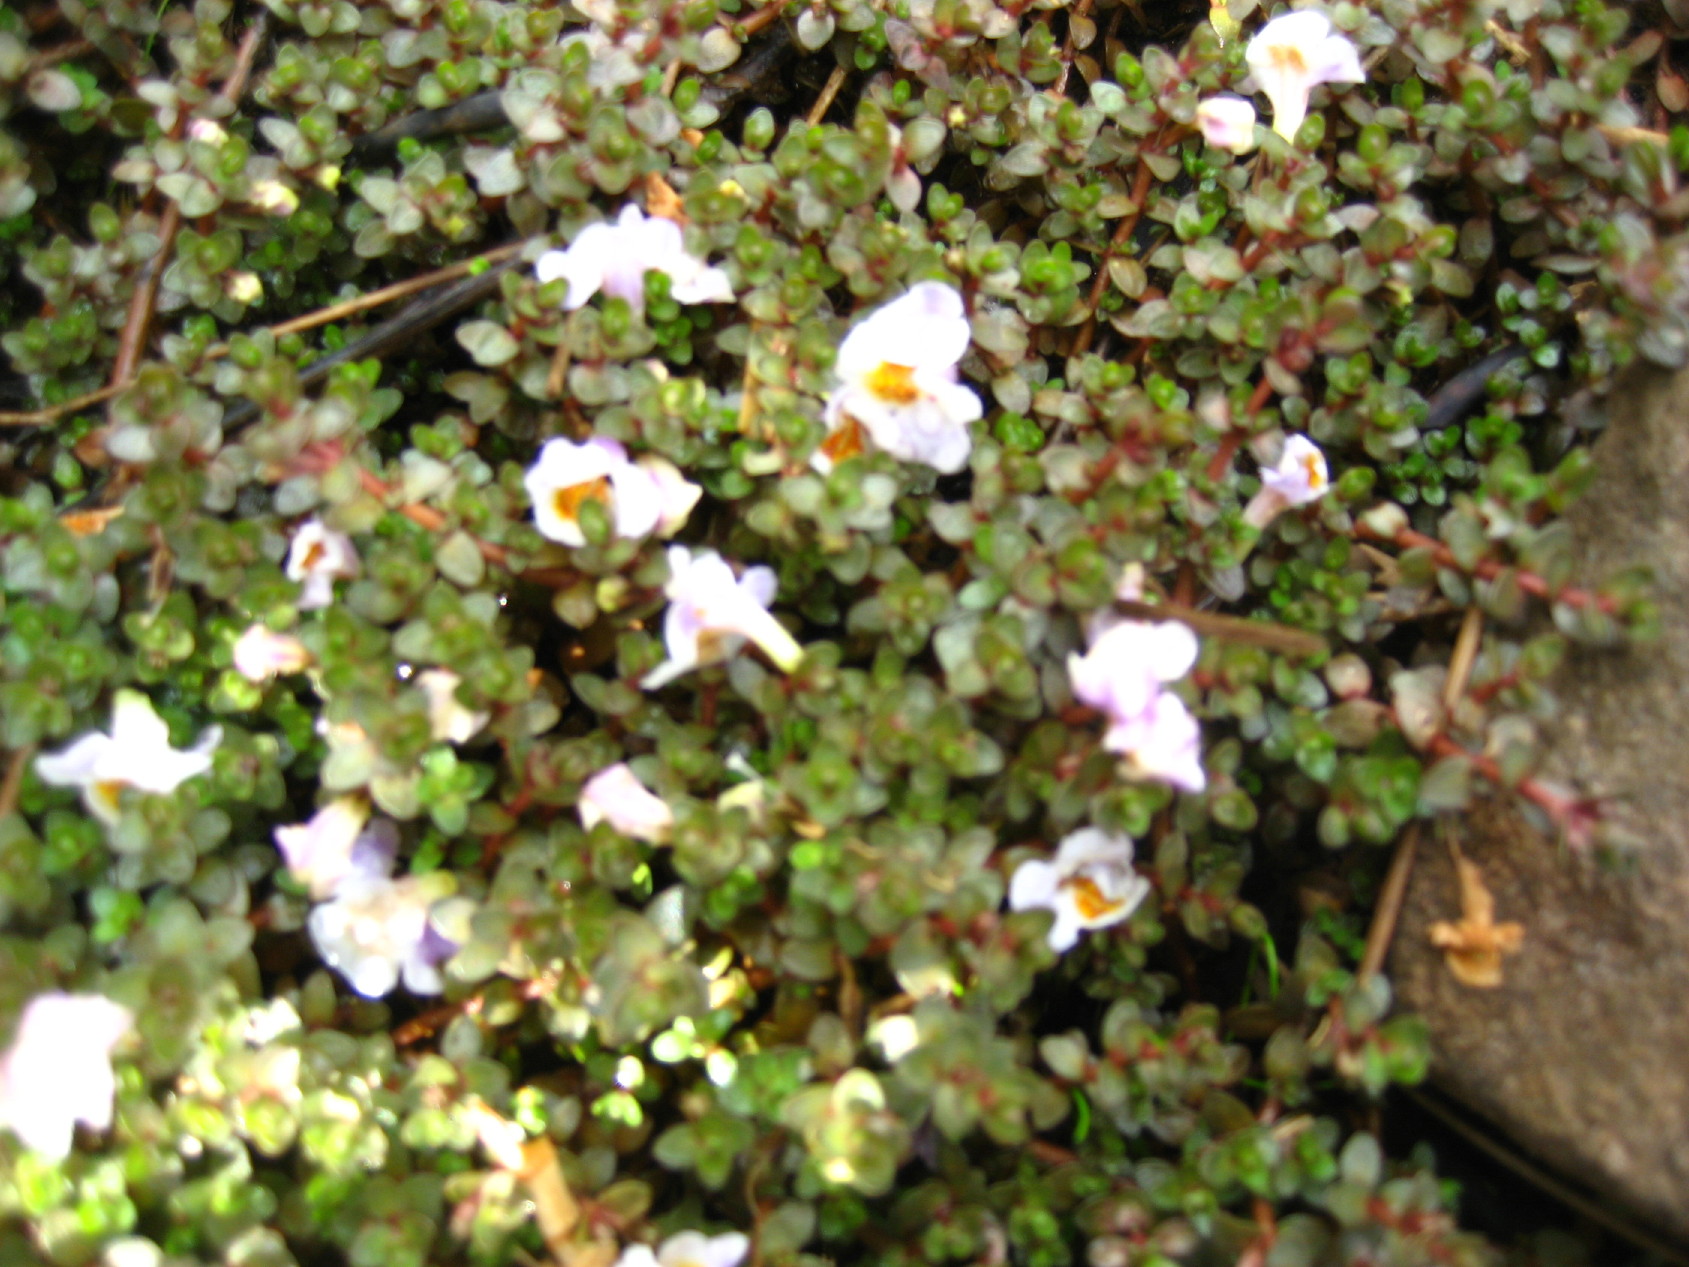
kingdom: Plantae
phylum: Tracheophyta
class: Magnoliopsida
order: Lamiales
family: Phrymaceae
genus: Thyridia
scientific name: Thyridia repens
